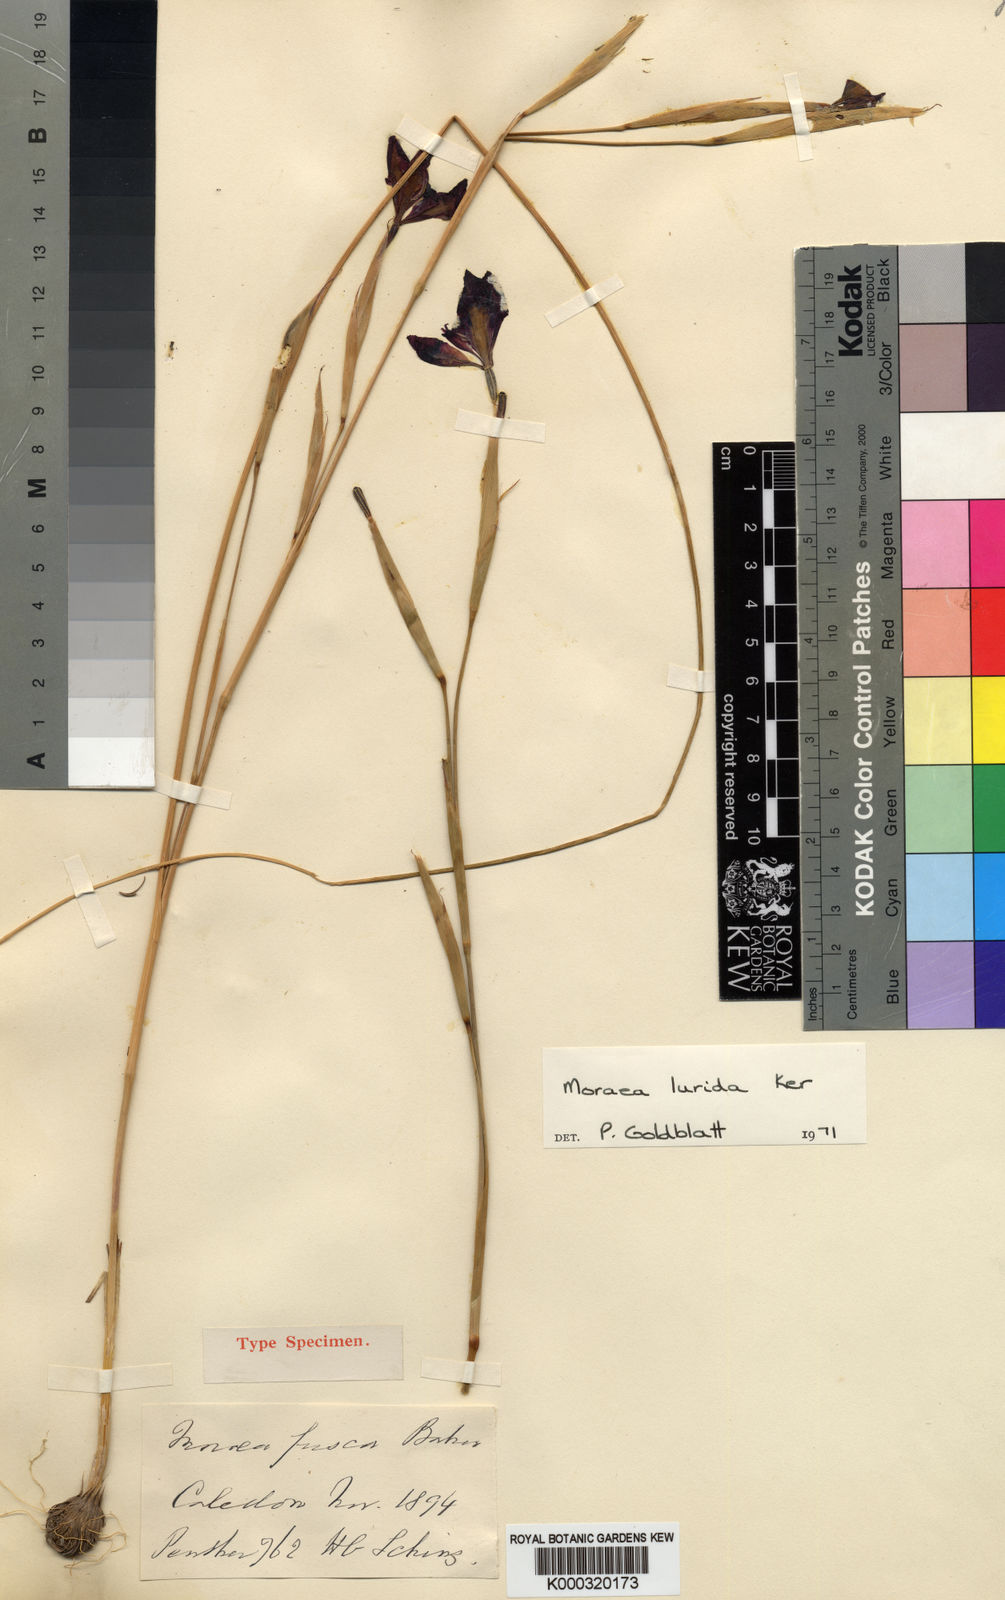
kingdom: Plantae
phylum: Tracheophyta
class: Liliopsida
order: Asparagales
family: Iridaceae
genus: Moraea
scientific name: Moraea lurida
